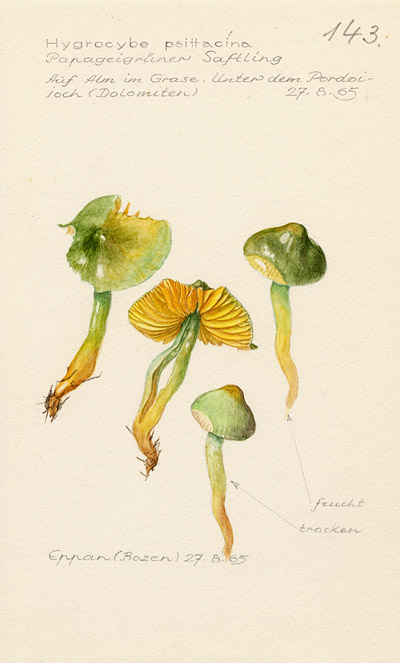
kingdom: Fungi
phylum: Basidiomycota
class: Agaricomycetes
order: Agaricales
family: Hygrophoraceae
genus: Gliophorus
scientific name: Gliophorus psittacinus
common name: Parrot wax-cap
